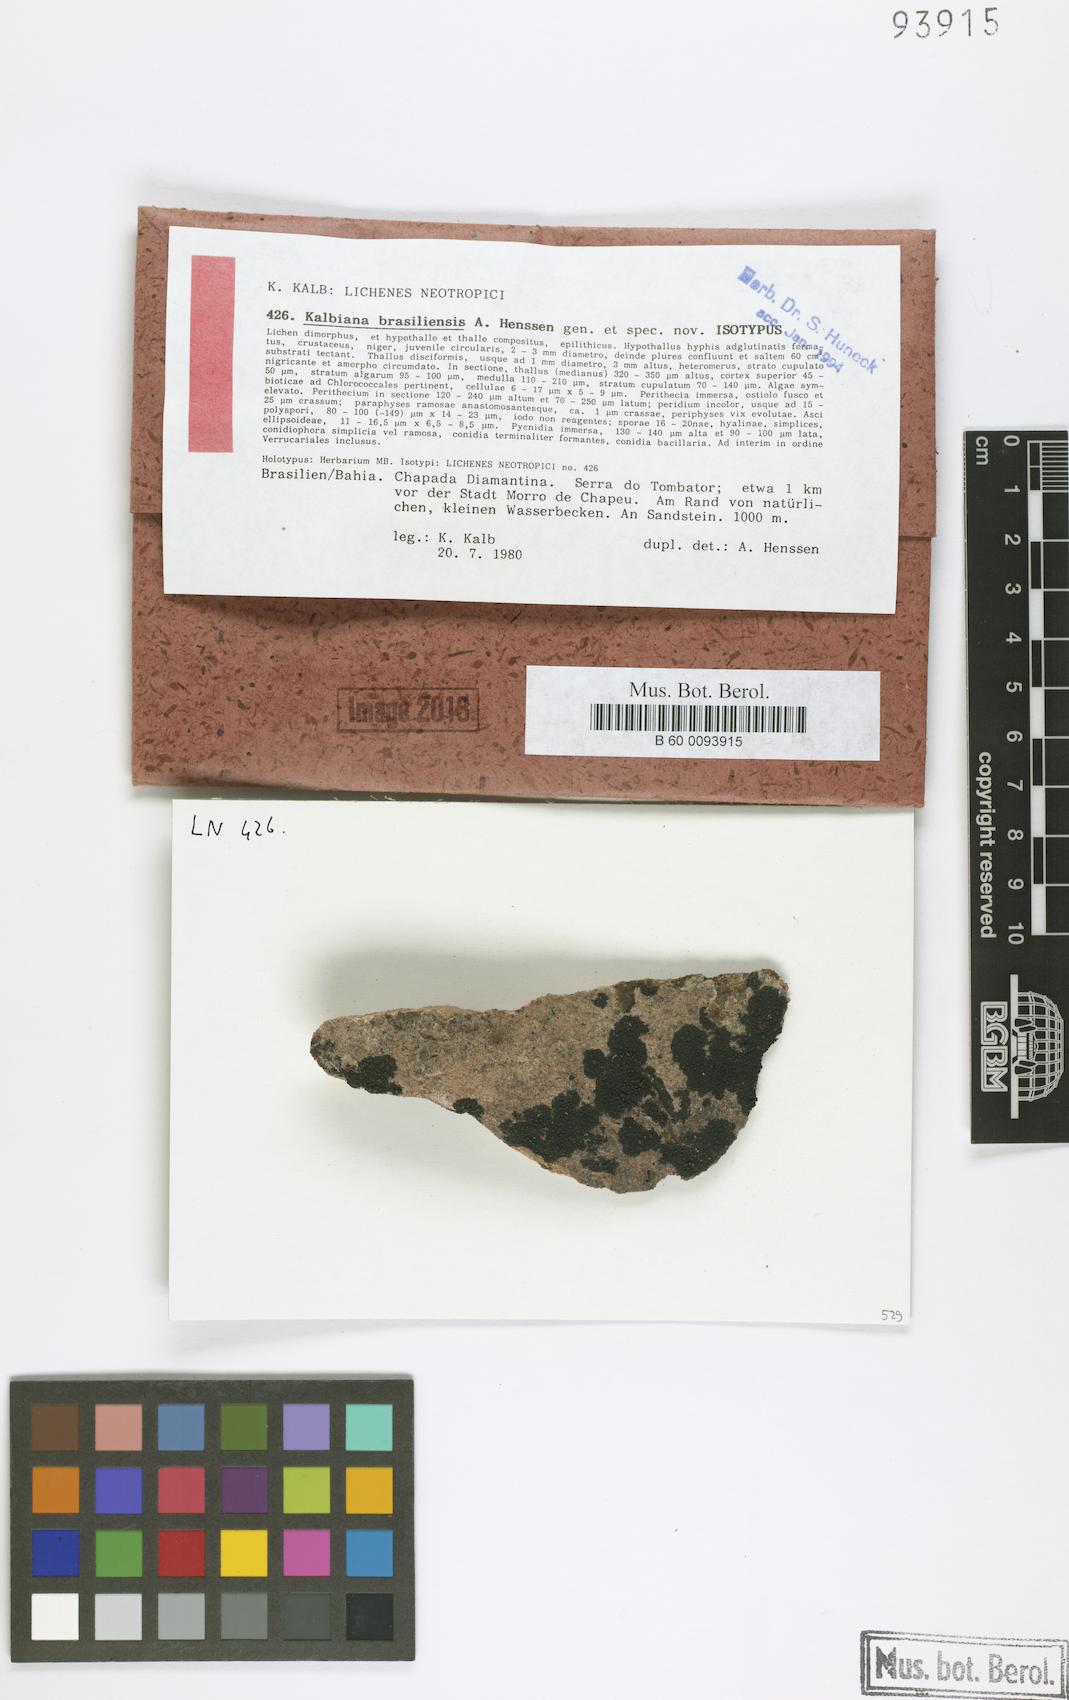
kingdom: Fungi
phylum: Ascomycota
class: Eurotiomycetes
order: Verrucariales
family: Verrucariaceae
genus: Kalbiana
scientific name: Kalbiana brasiliensis
